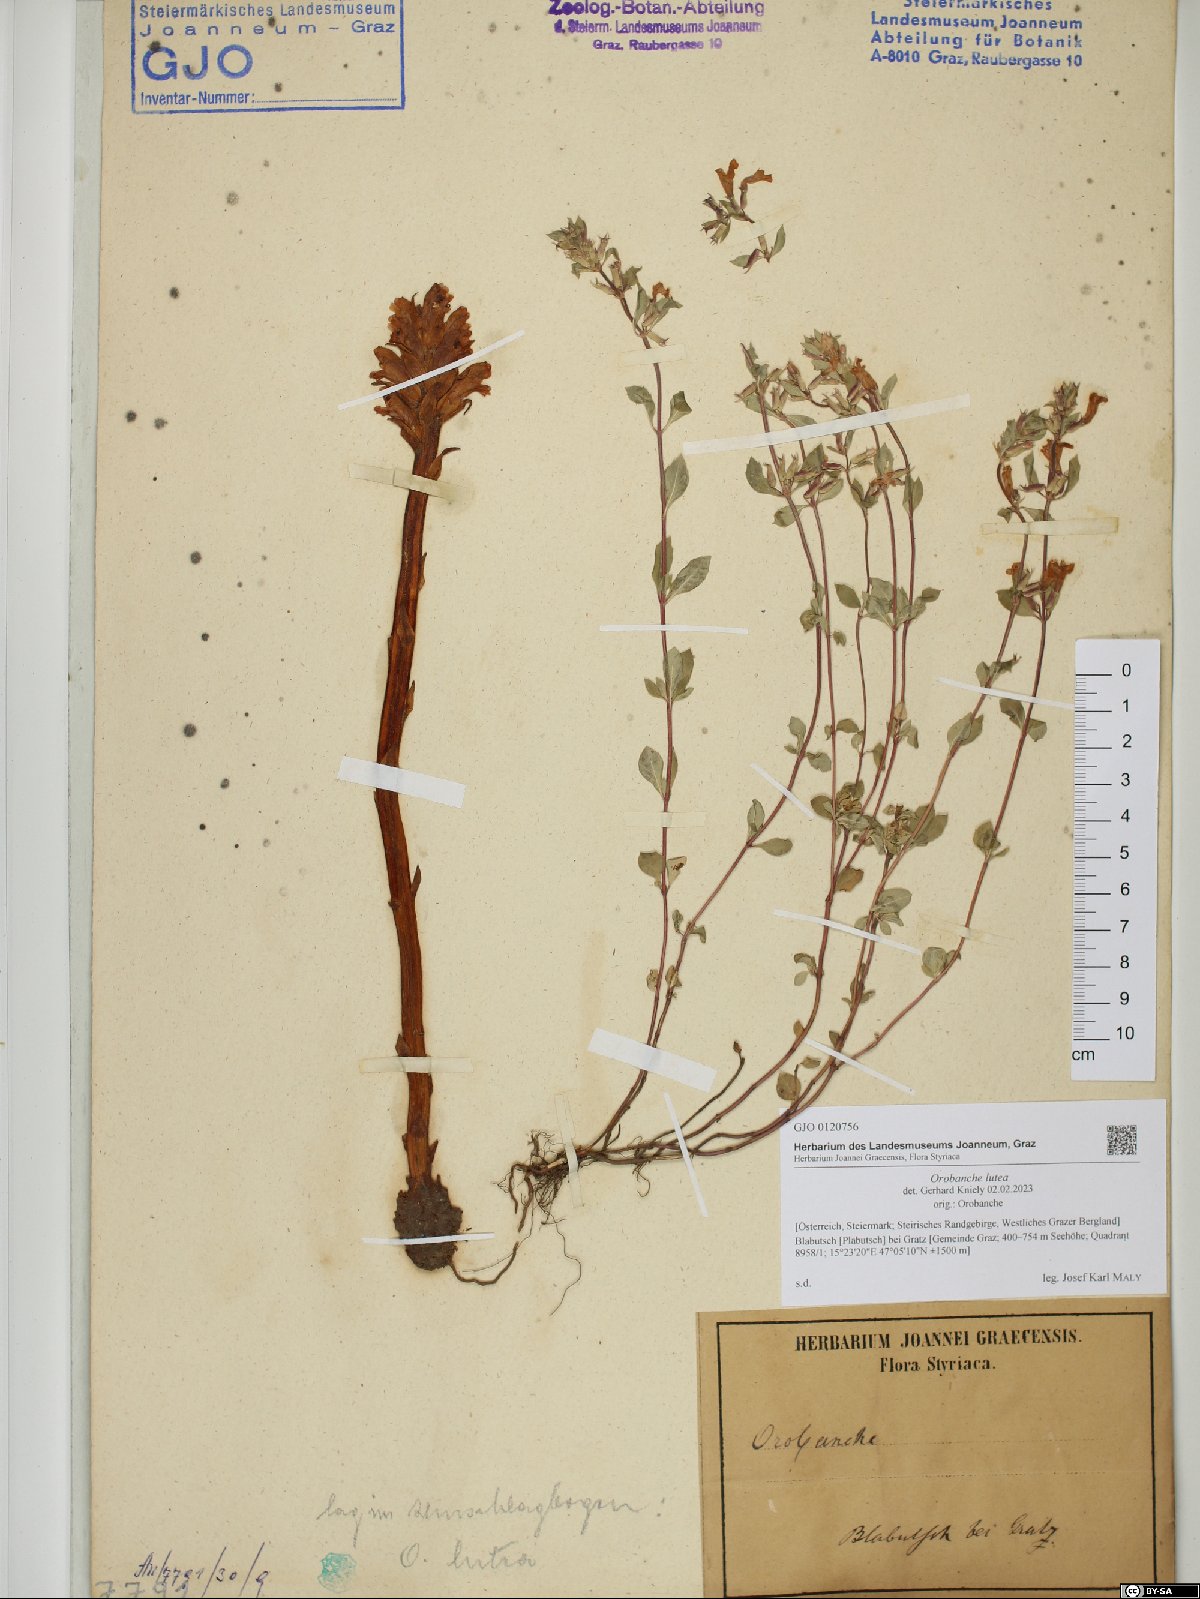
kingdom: Plantae
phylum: Tracheophyta
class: Magnoliopsida
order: Lamiales
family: Orobanchaceae
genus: Orobanche
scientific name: Orobanche lutea
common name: Yellow broomrape
